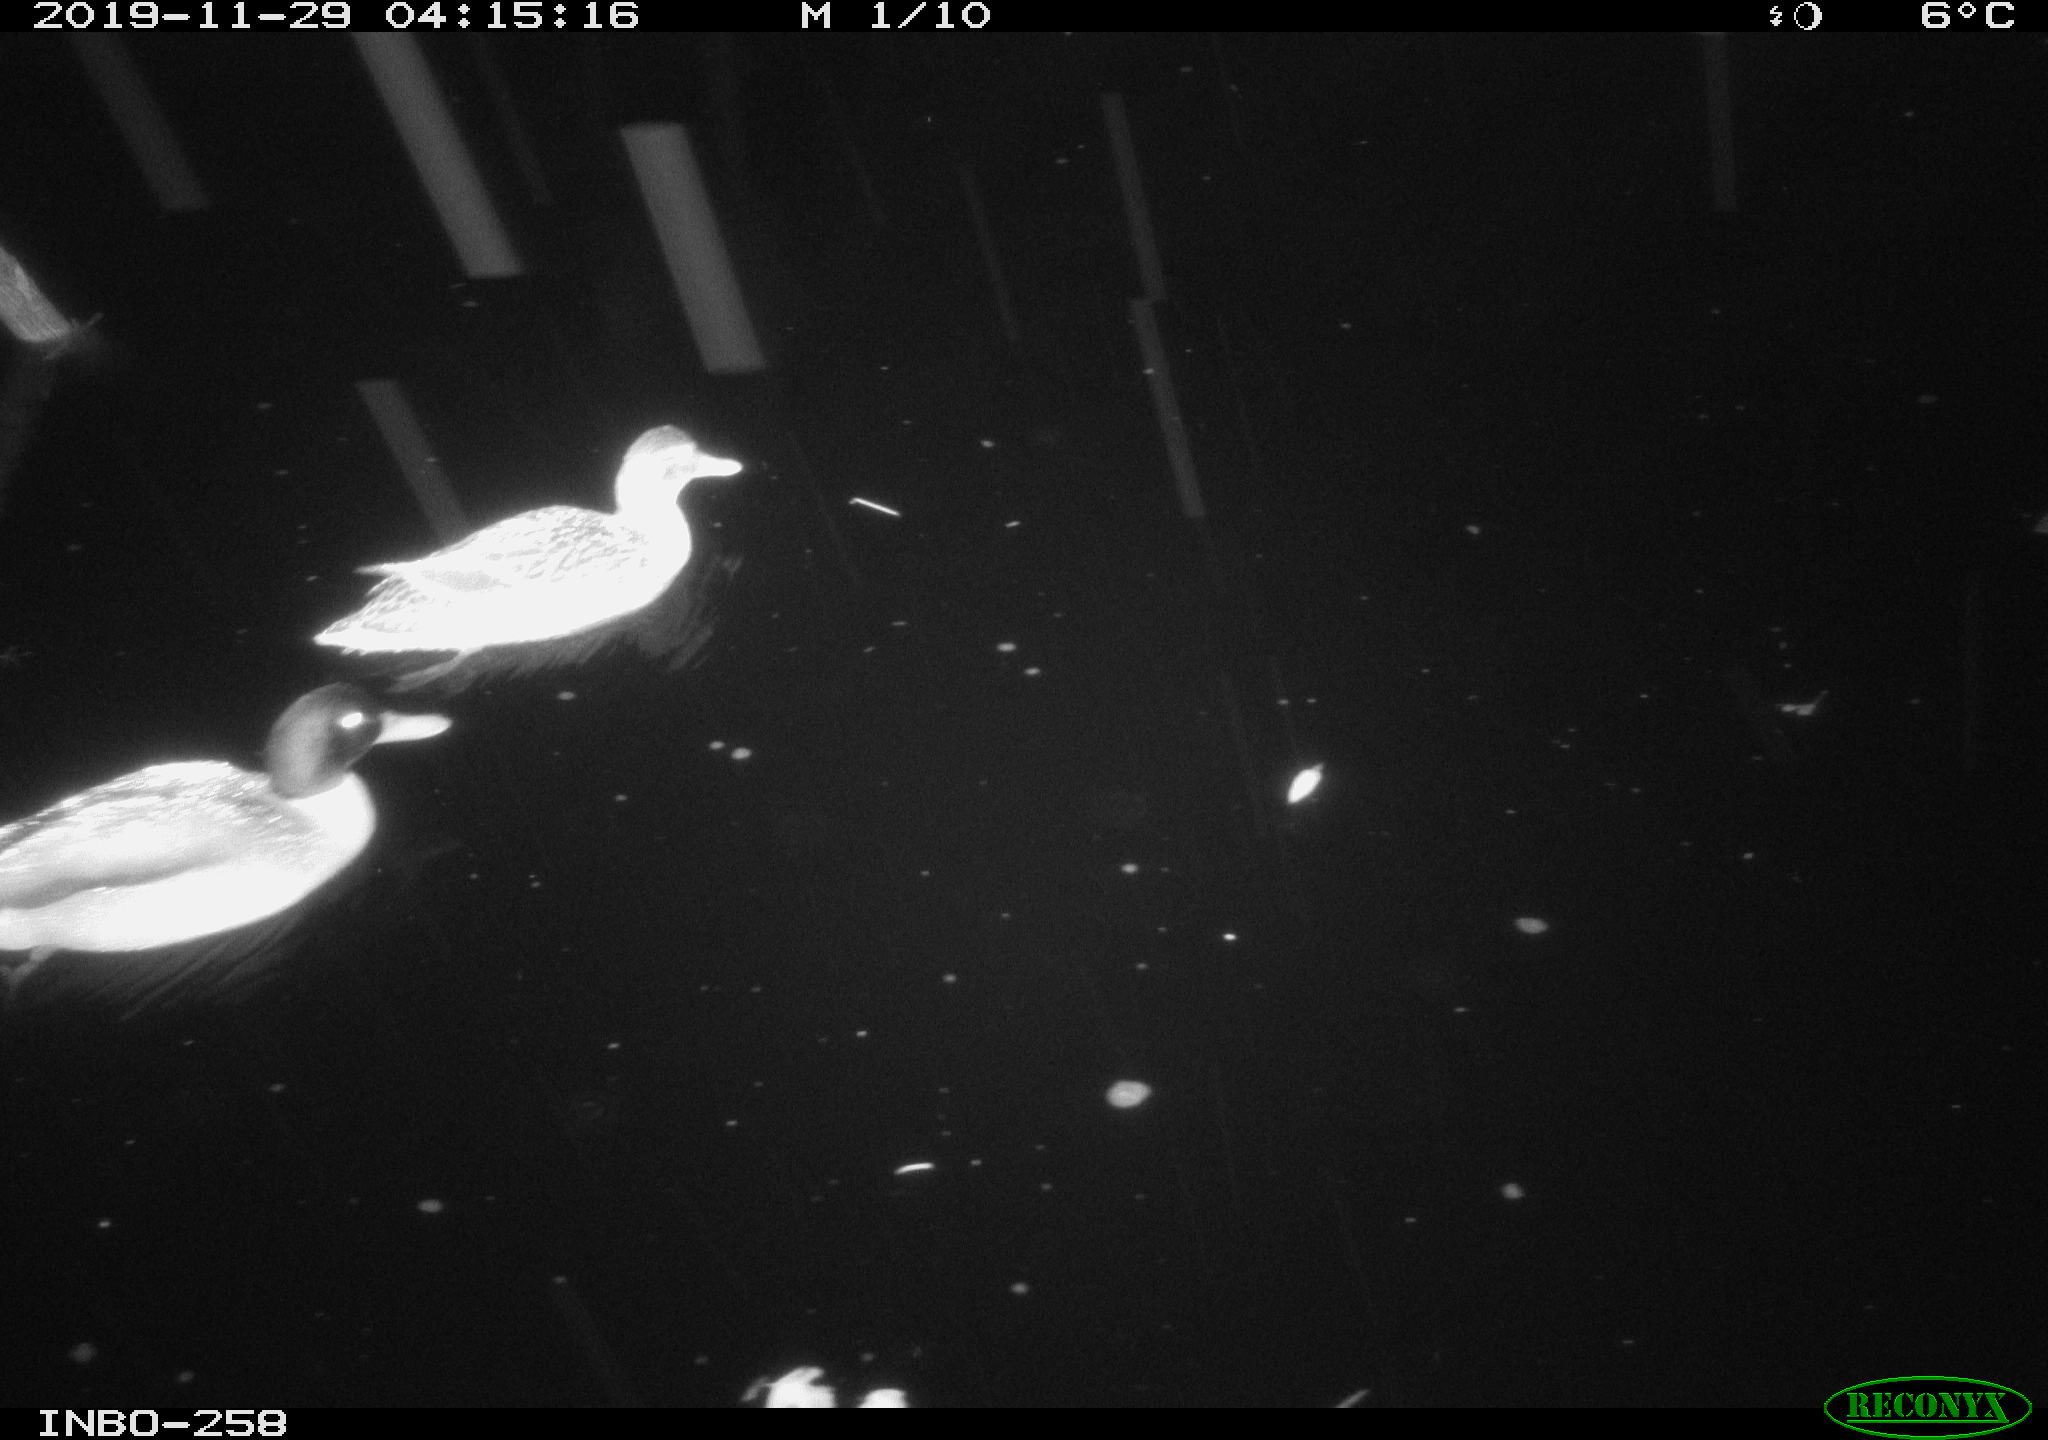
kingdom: Animalia
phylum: Chordata
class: Aves
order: Anseriformes
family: Anatidae
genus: Anas
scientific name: Anas platyrhynchos
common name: Mallard
